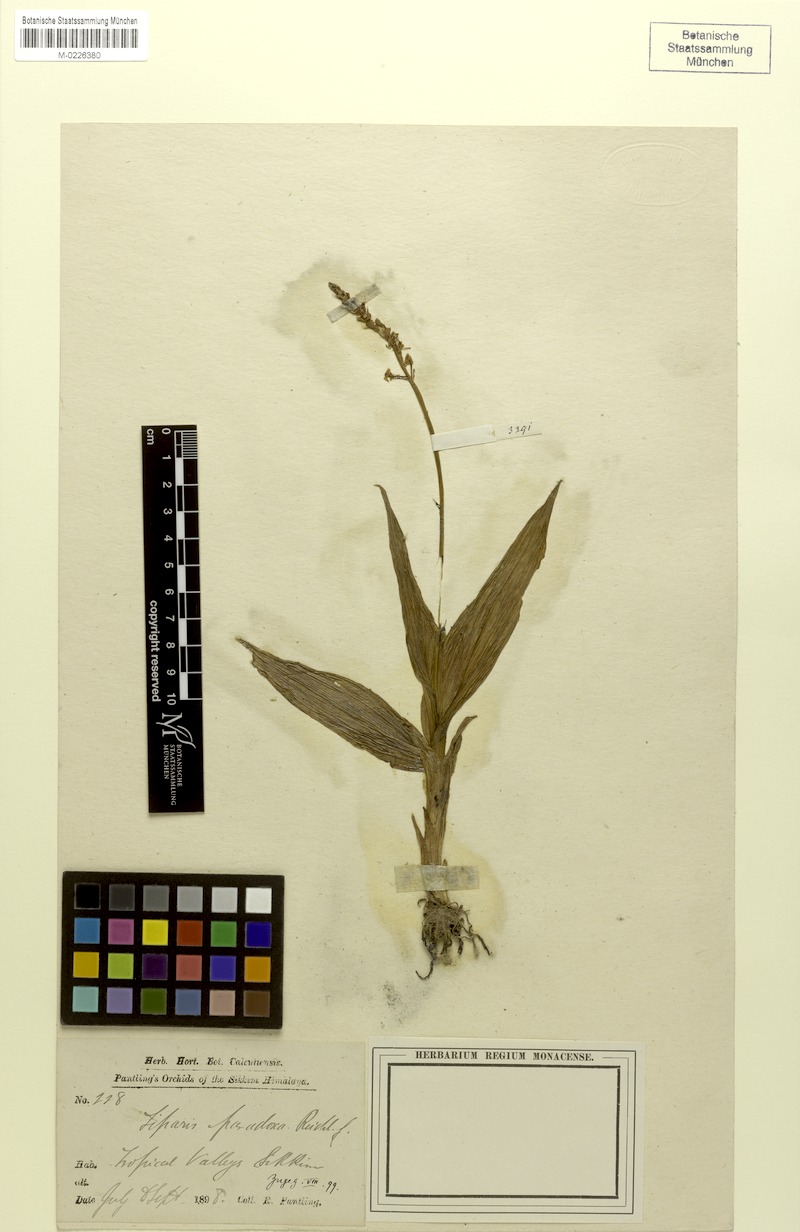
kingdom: Plantae
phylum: Tracheophyta
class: Liliopsida
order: Asparagales
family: Orchidaceae
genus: Liparis
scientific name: Liparis odorata
